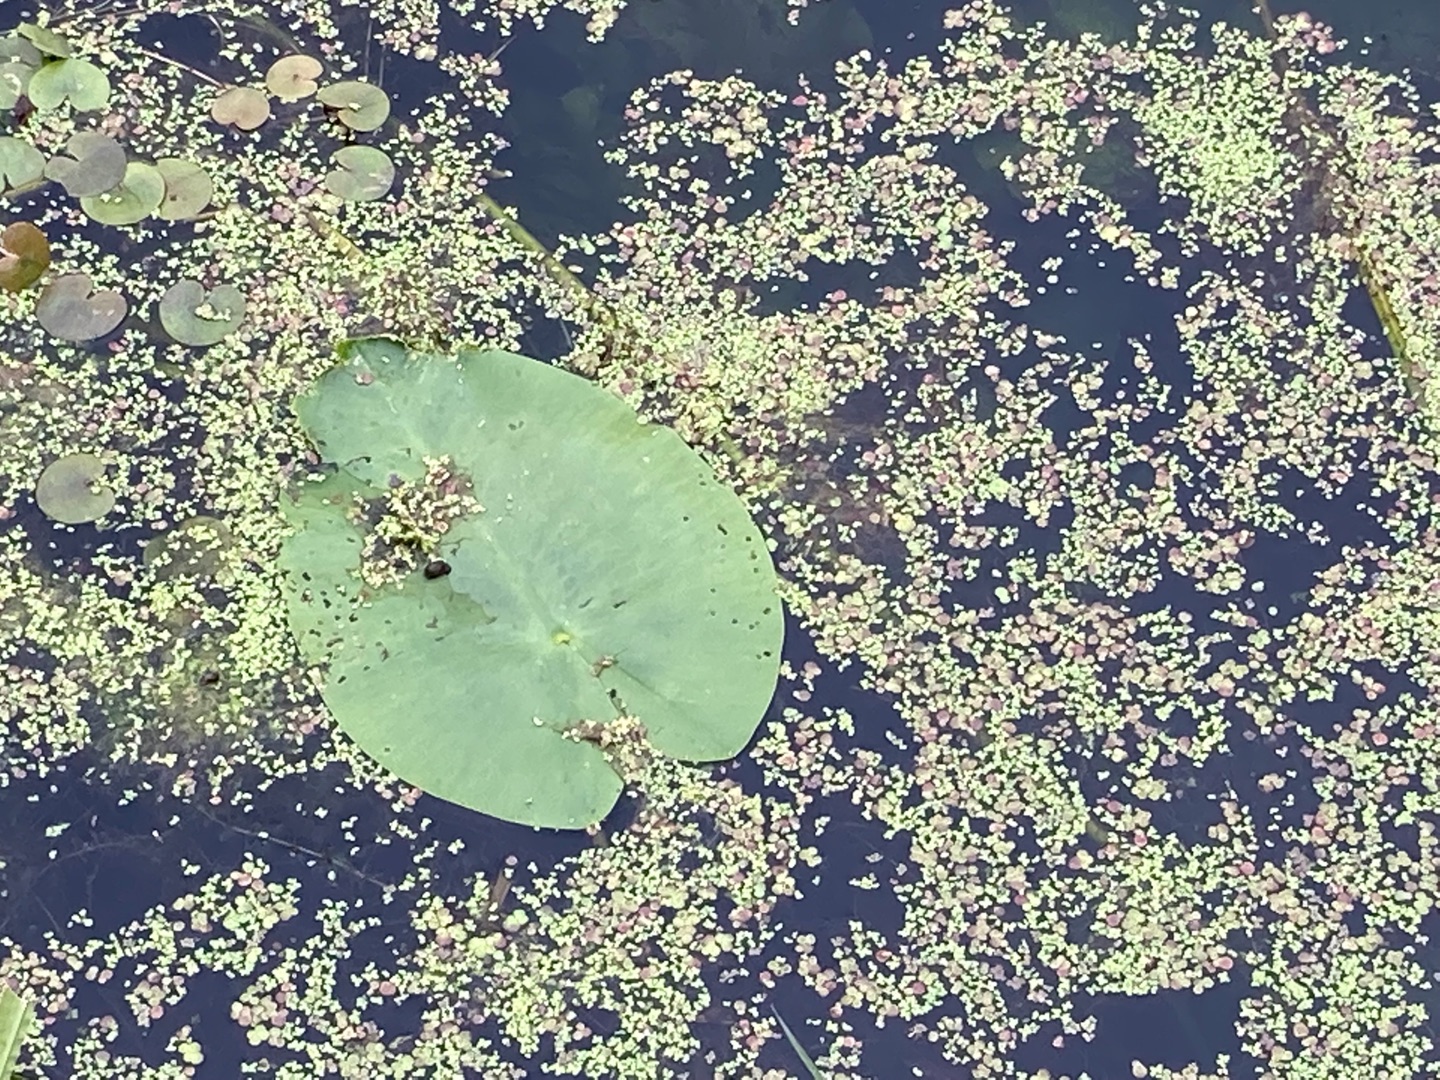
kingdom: Plantae
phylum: Tracheophyta
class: Magnoliopsida
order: Nymphaeales
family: Nymphaeaceae
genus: Nuphar
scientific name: Nuphar lutea
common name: Gul åkande
